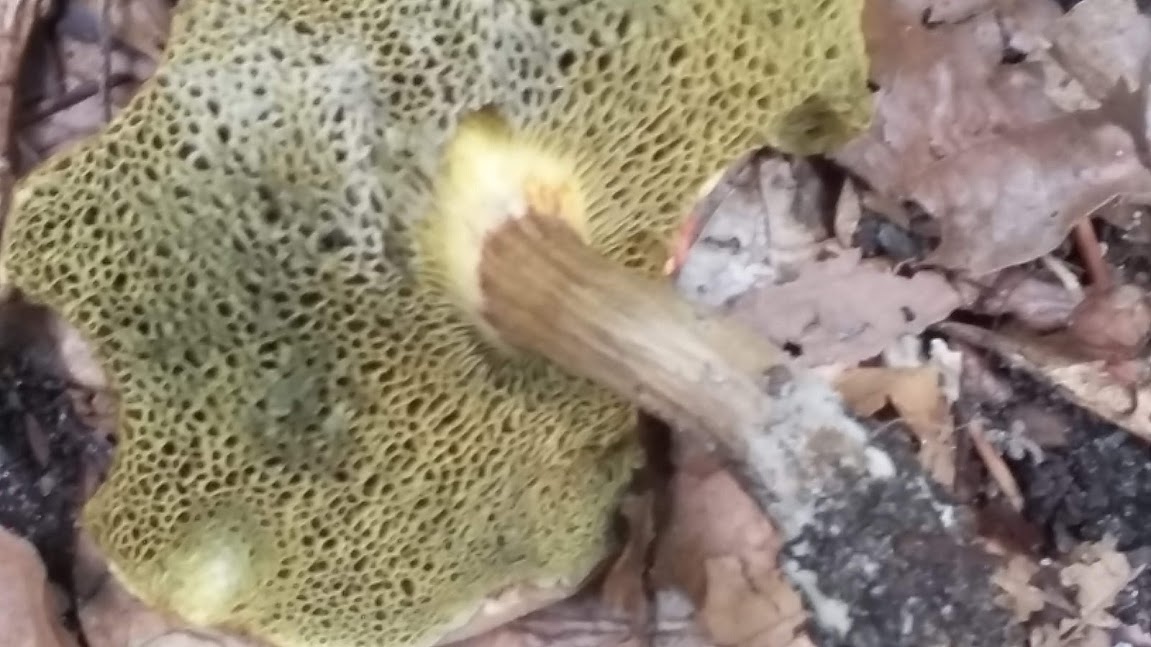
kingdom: Fungi
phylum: Basidiomycota
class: Agaricomycetes
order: Boletales
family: Boletaceae
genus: Xerocomellus
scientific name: Xerocomellus porosporus
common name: hvidsprukken rørhat
